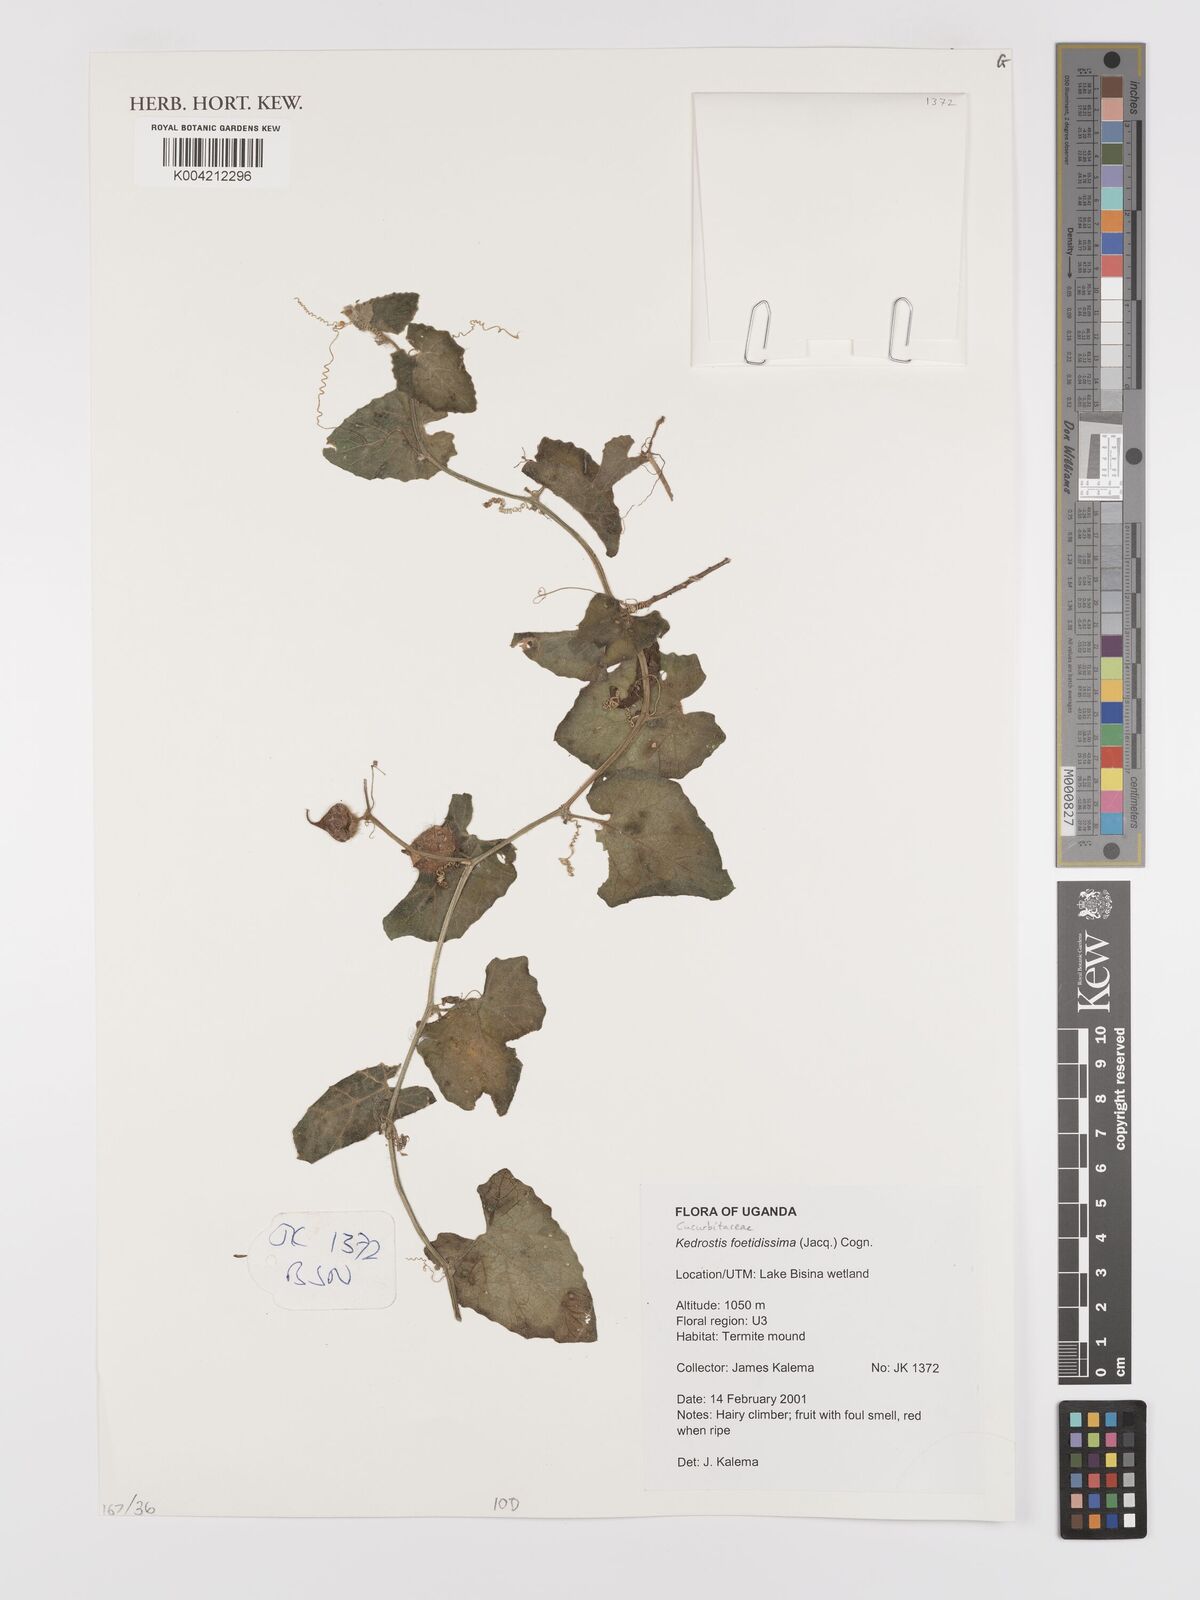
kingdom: Plantae
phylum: Tracheophyta
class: Magnoliopsida
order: Cucurbitales
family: Cucurbitaceae
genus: Kedrostis
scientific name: Kedrostis foetidissima
